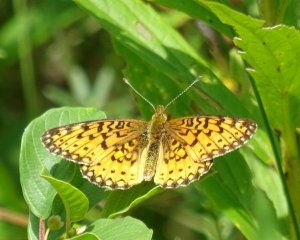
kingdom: Animalia
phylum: Arthropoda
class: Insecta
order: Lepidoptera
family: Nymphalidae
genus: Boloria
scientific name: Boloria selene
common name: Silver-bordered Fritillary
